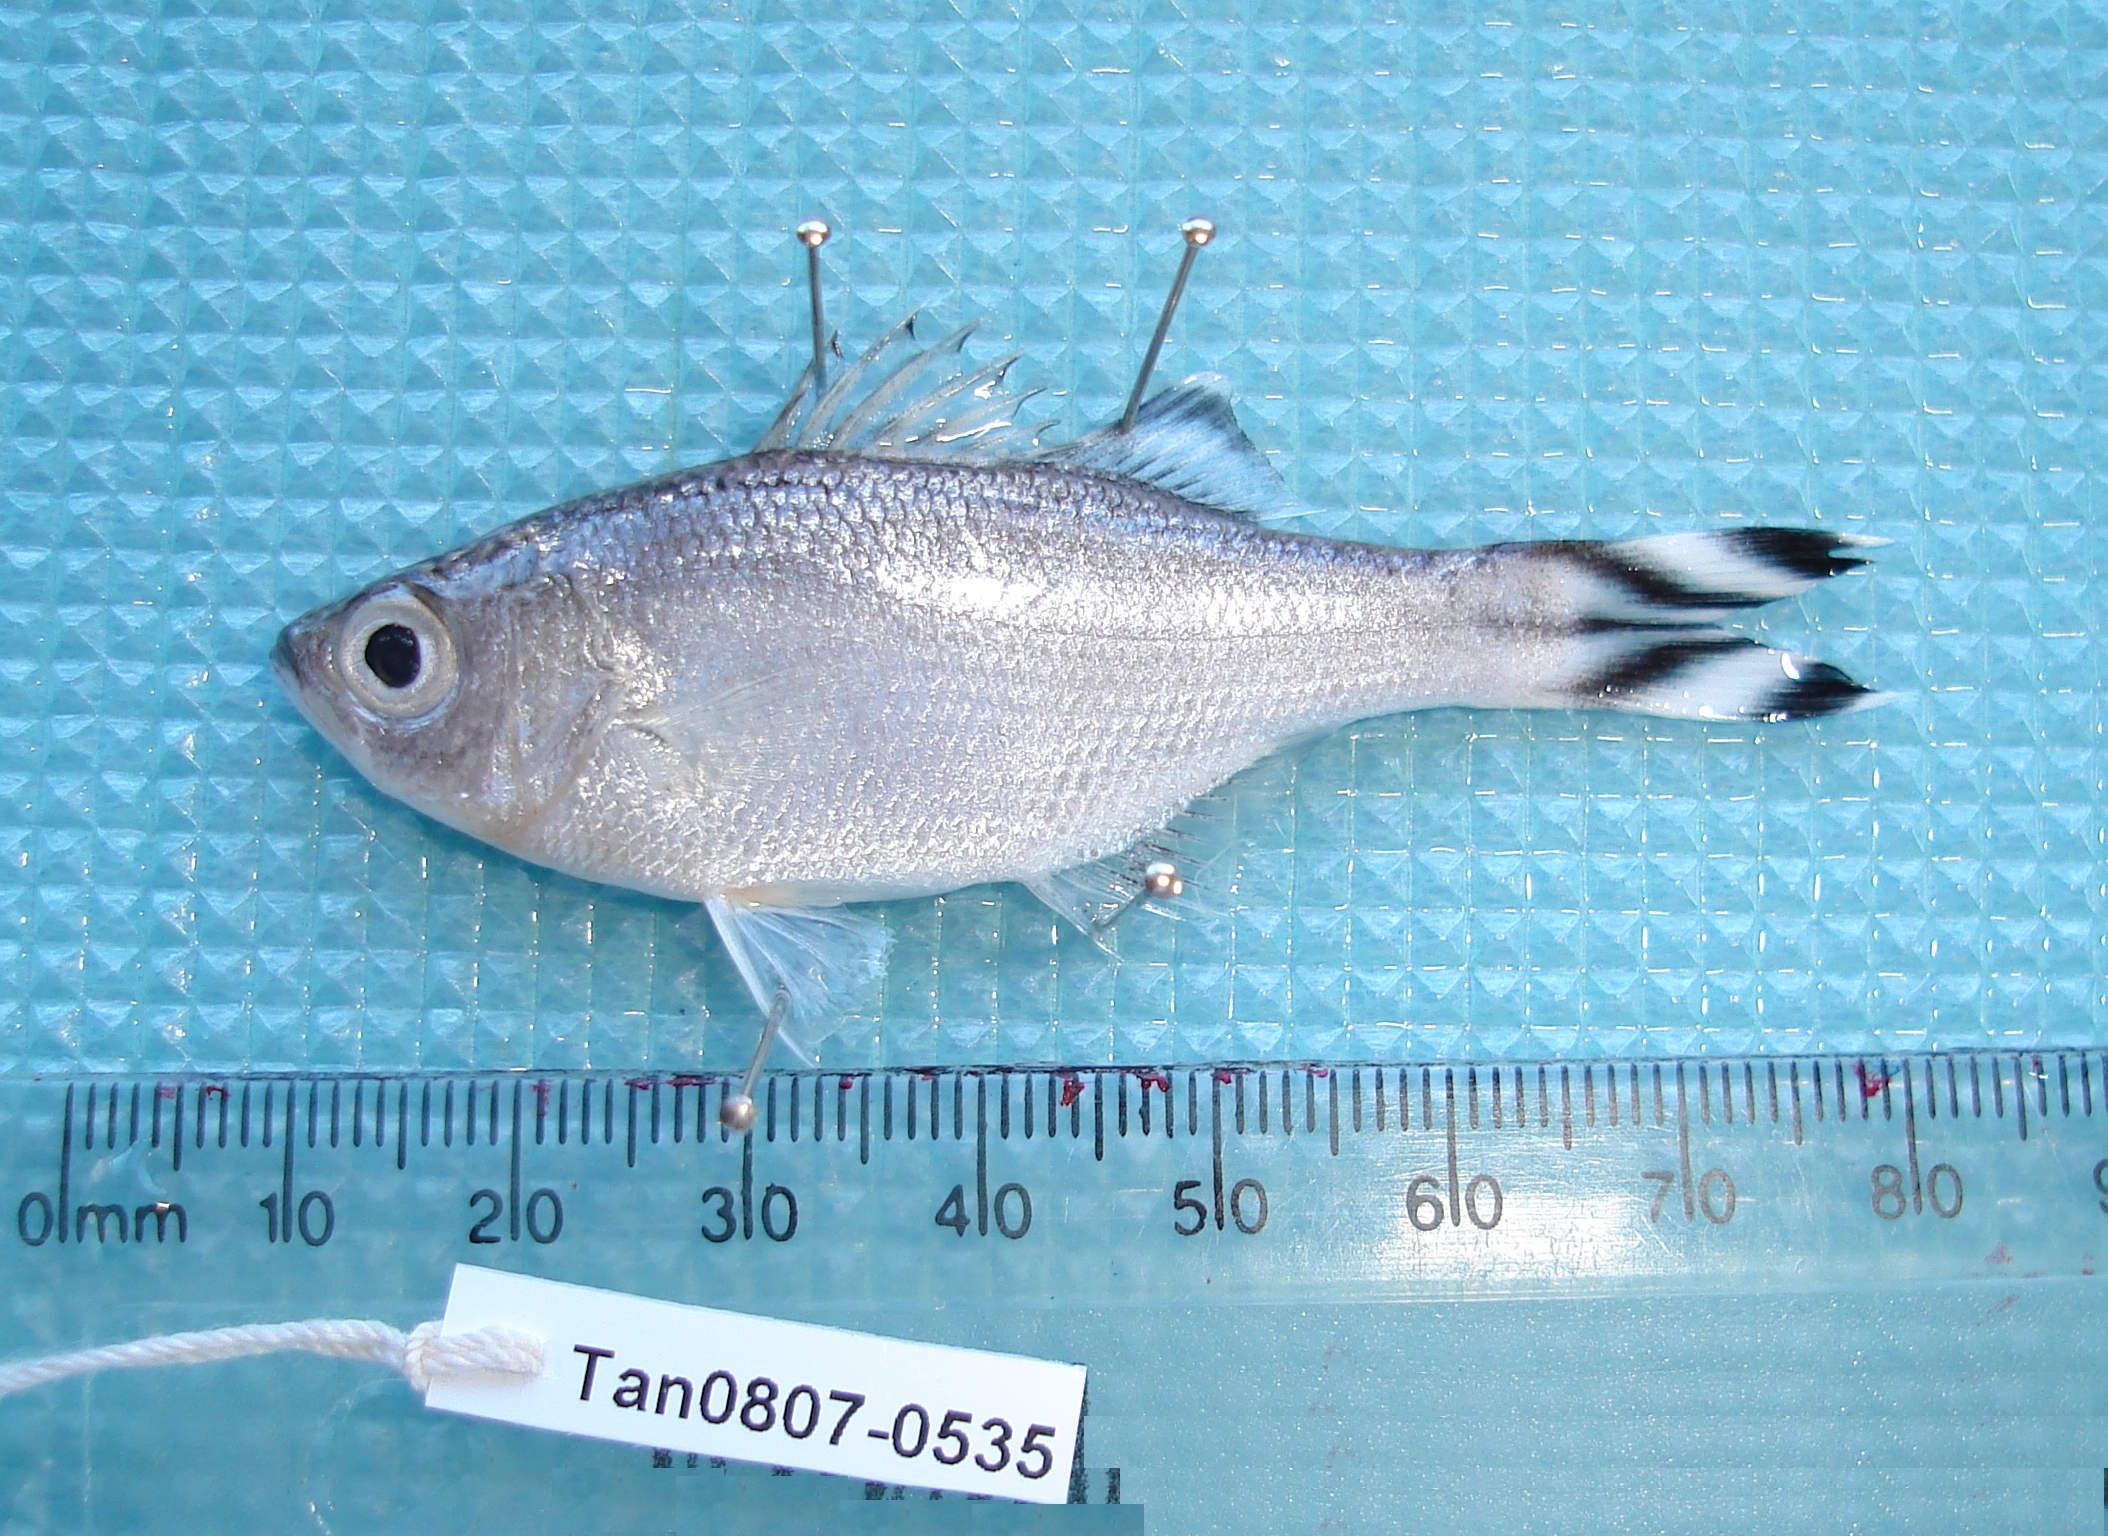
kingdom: Animalia
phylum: Chordata
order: Perciformes
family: Kuhliidae
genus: Kuhlia
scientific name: Kuhlia mugil
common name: Barred flagtail
